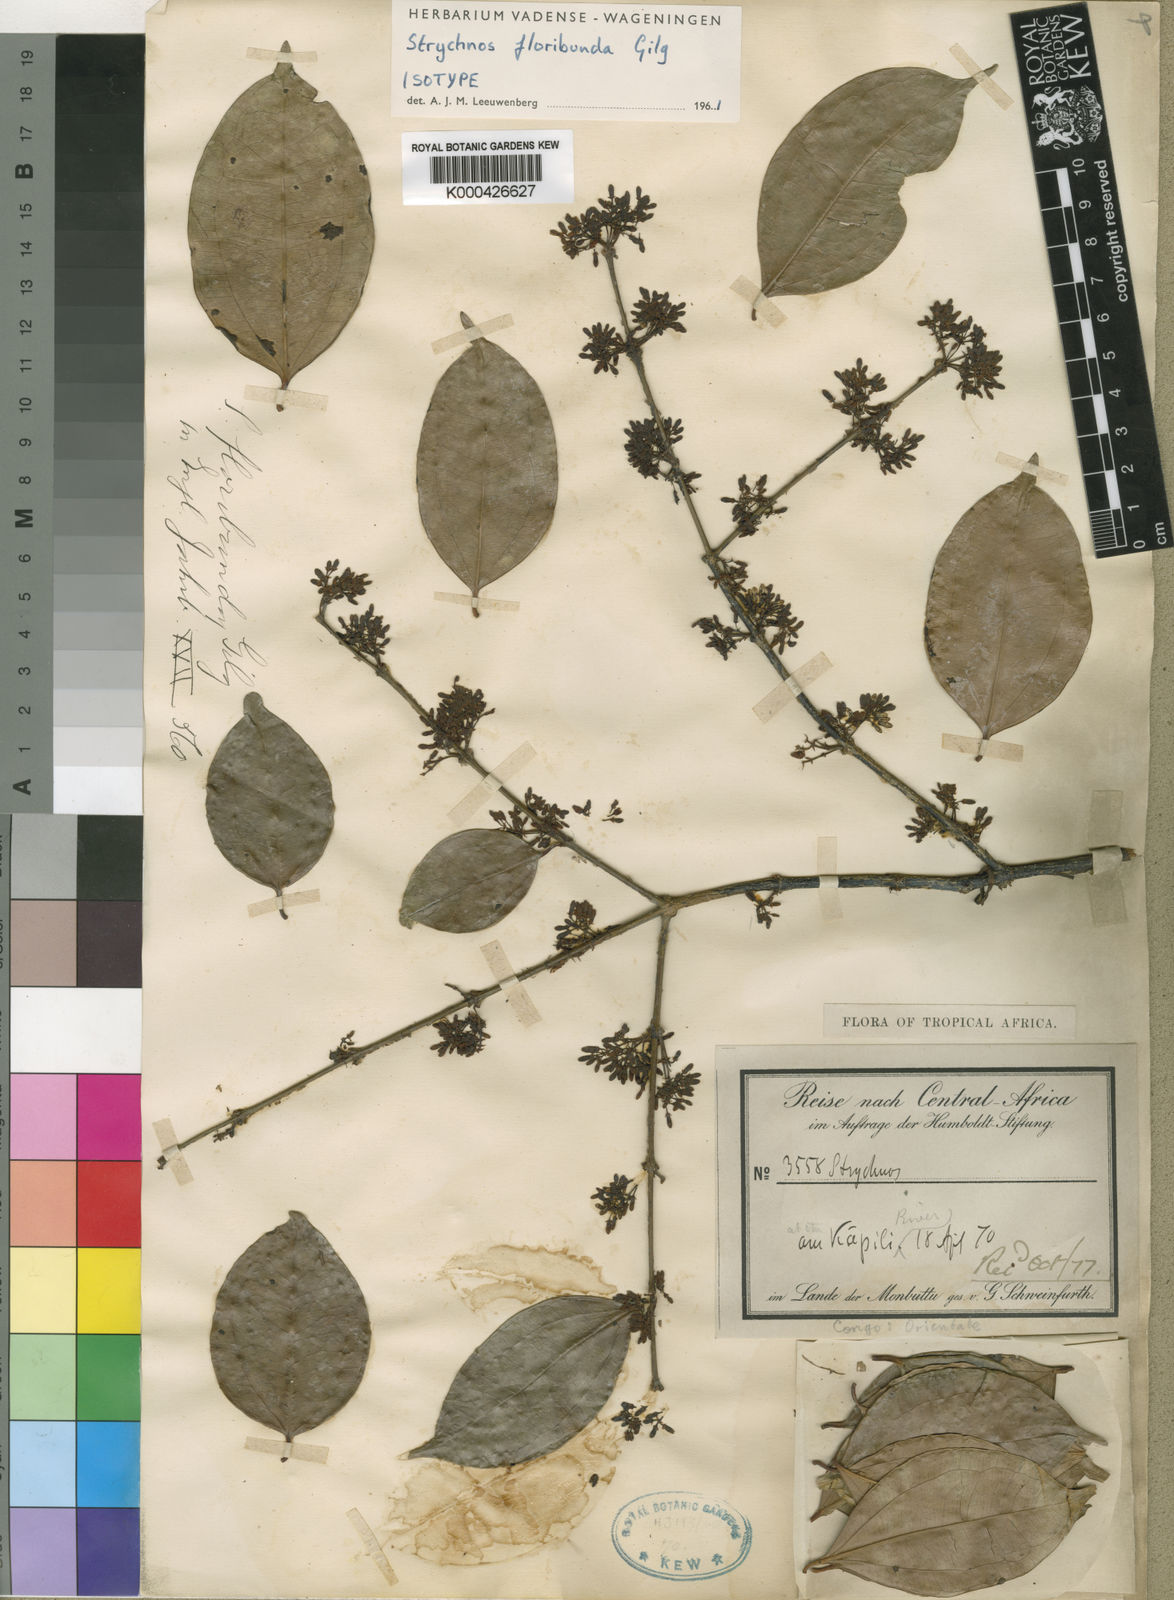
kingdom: Plantae
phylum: Tracheophyta
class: Magnoliopsida
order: Gentianales
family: Loganiaceae
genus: Strychnos
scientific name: Strychnos floribunda
